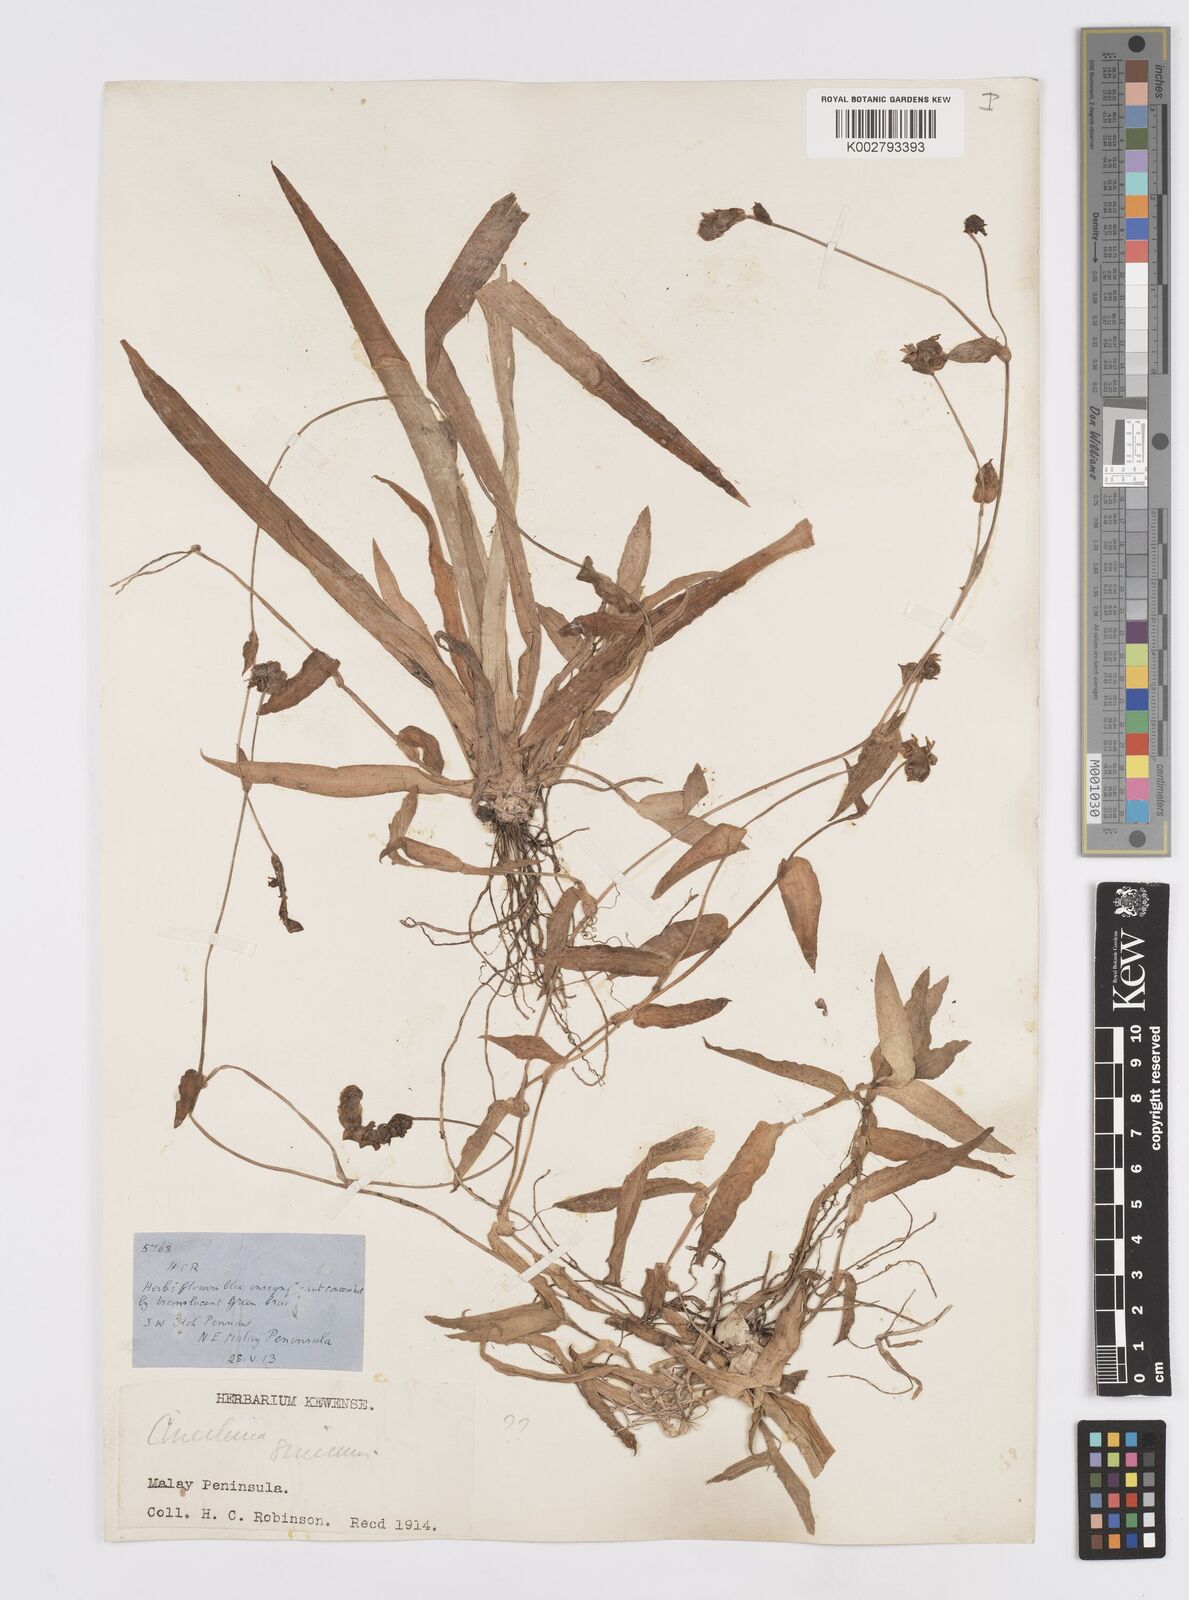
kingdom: Plantae
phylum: Tracheophyta
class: Liliopsida
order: Commelinales
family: Commelinaceae
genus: Murdannia
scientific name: Murdannia simplex
